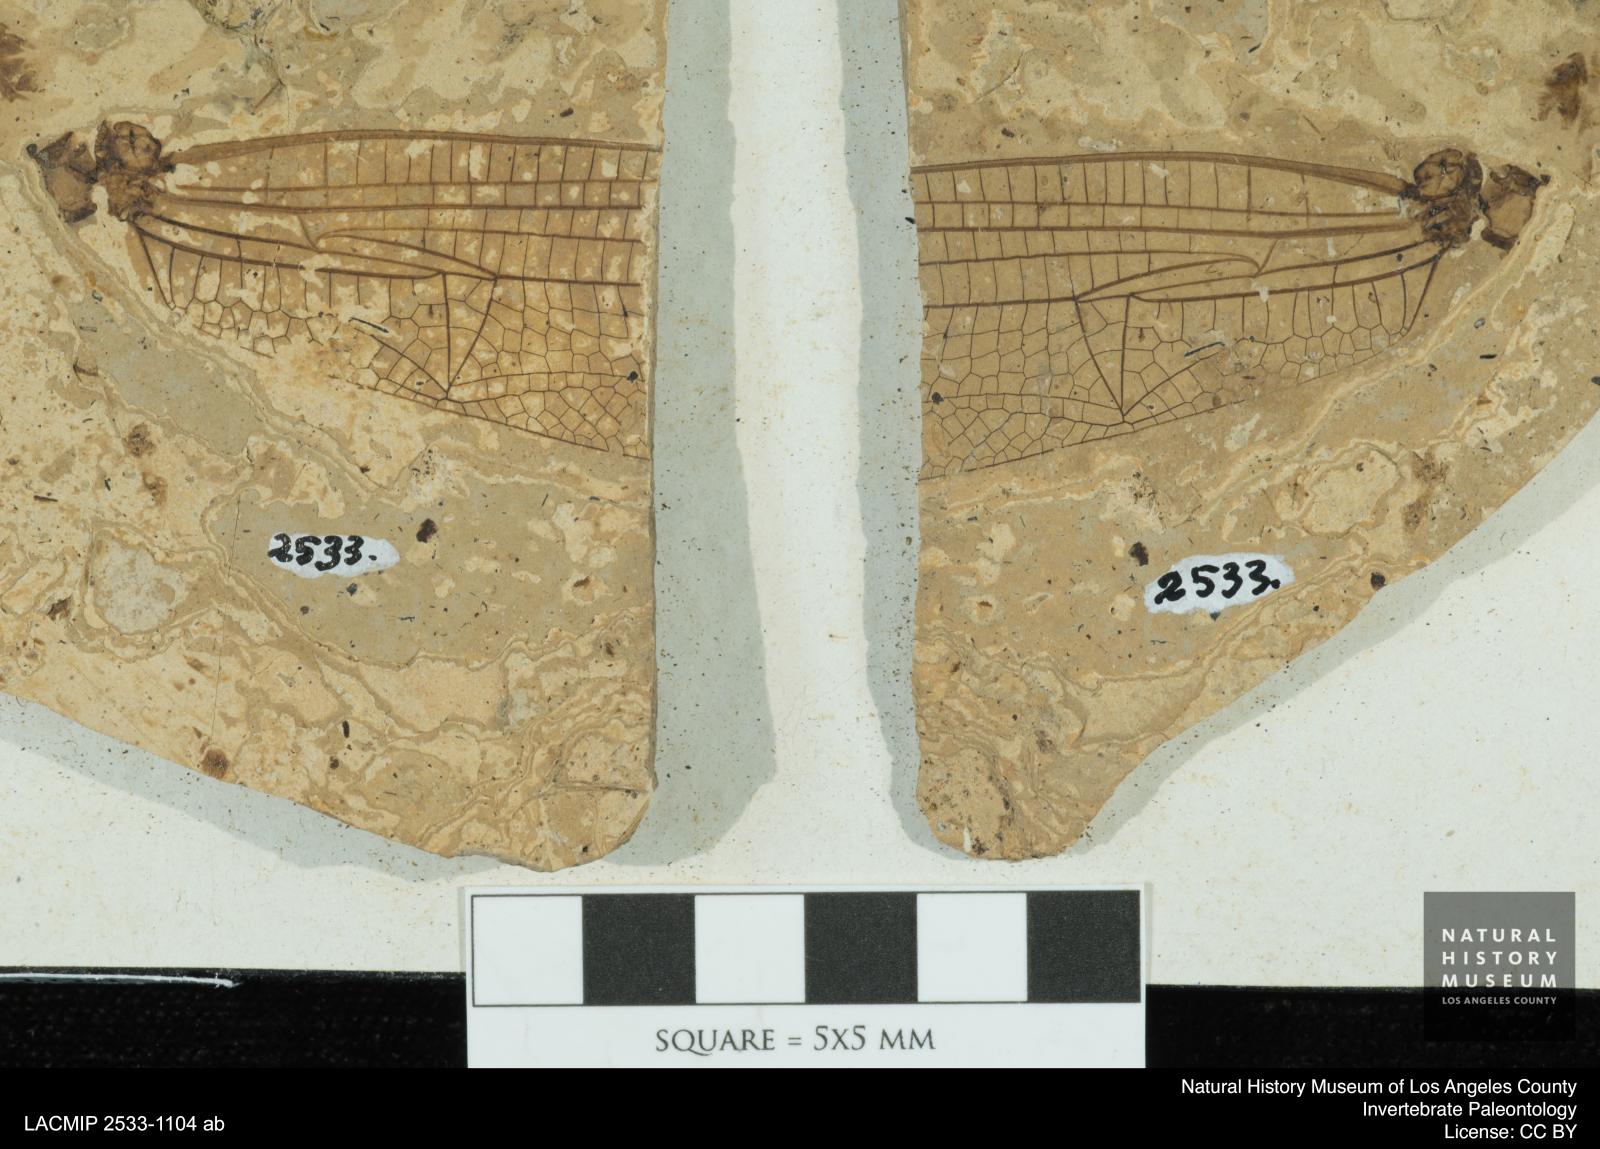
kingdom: Animalia
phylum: Arthropoda
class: Insecta
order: Odonata
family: Libellulidae
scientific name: Libellulidae
